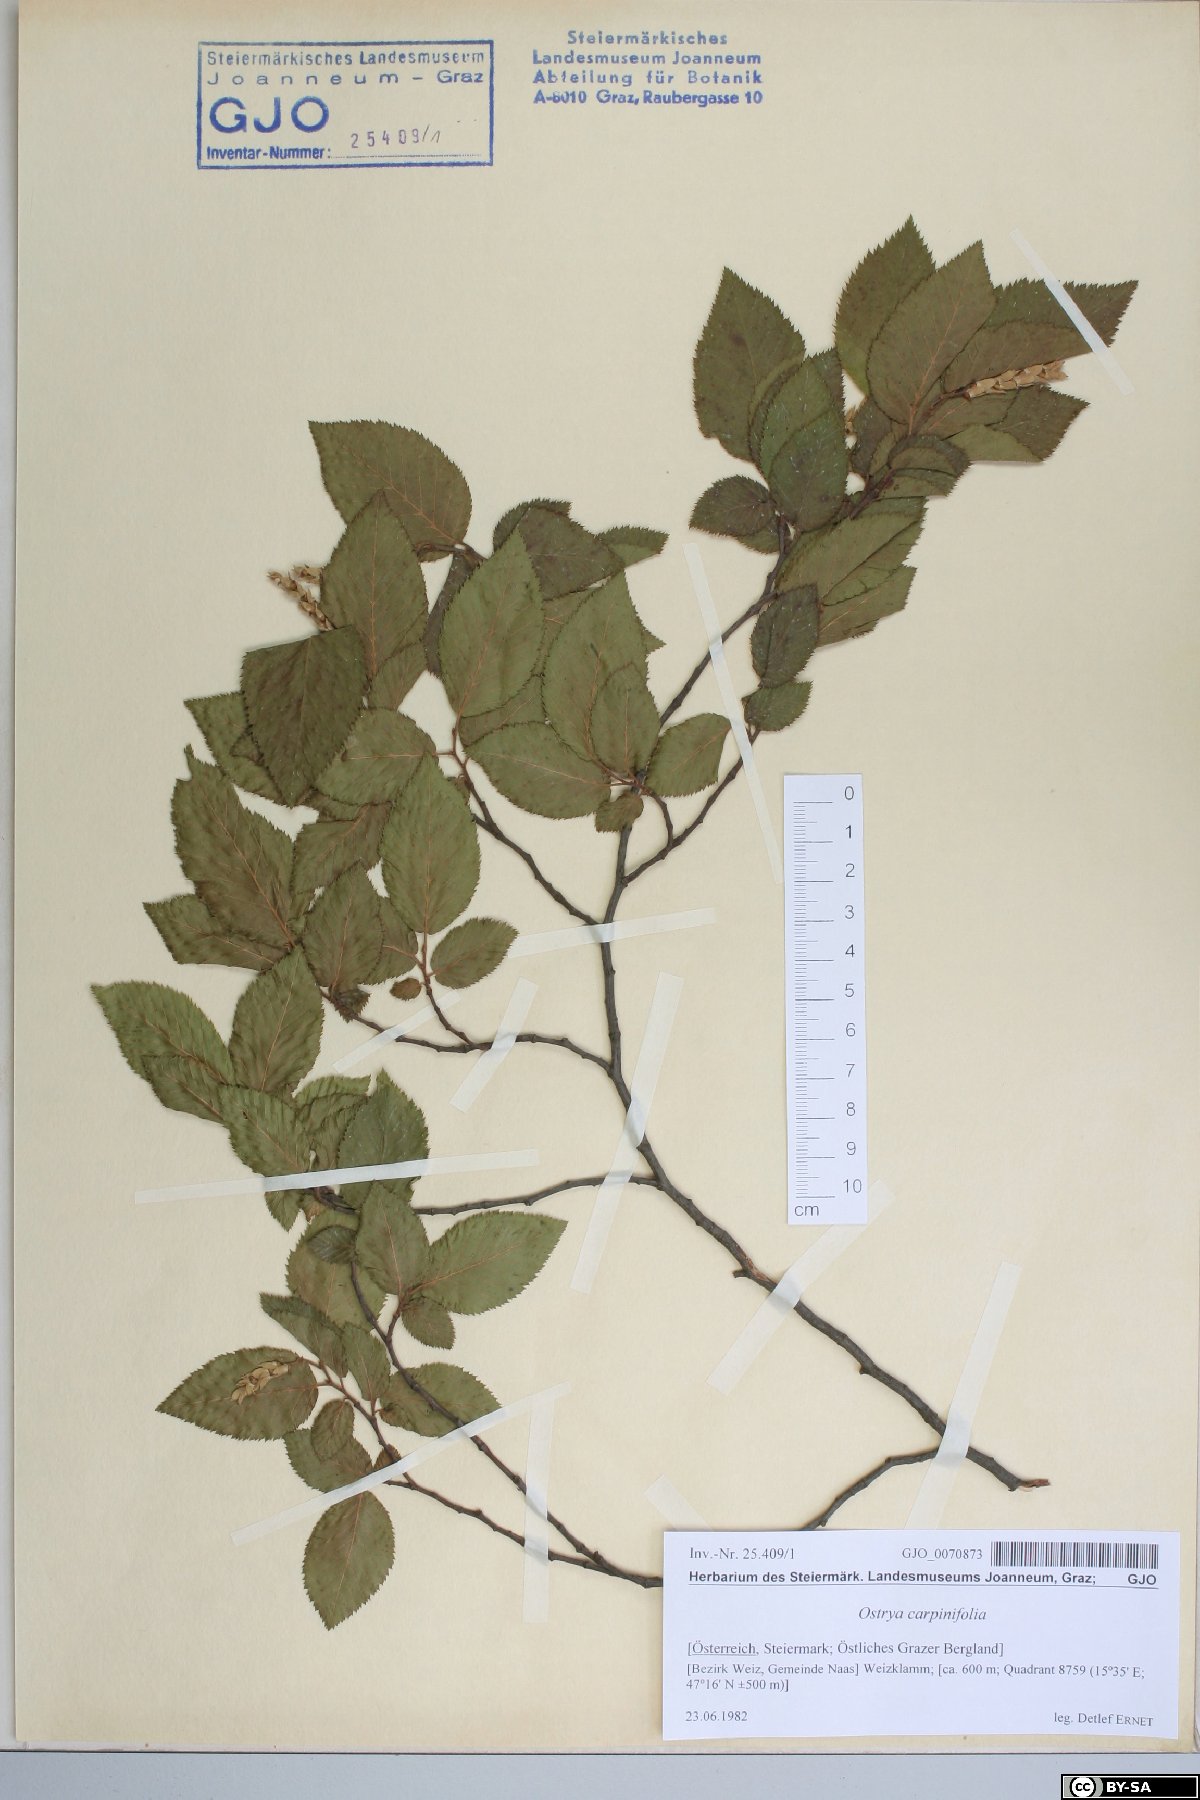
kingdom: Plantae
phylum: Tracheophyta
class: Magnoliopsida
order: Fagales
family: Betulaceae
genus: Ostrya
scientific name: Ostrya carpinifolia
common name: European hop-hornbeam
